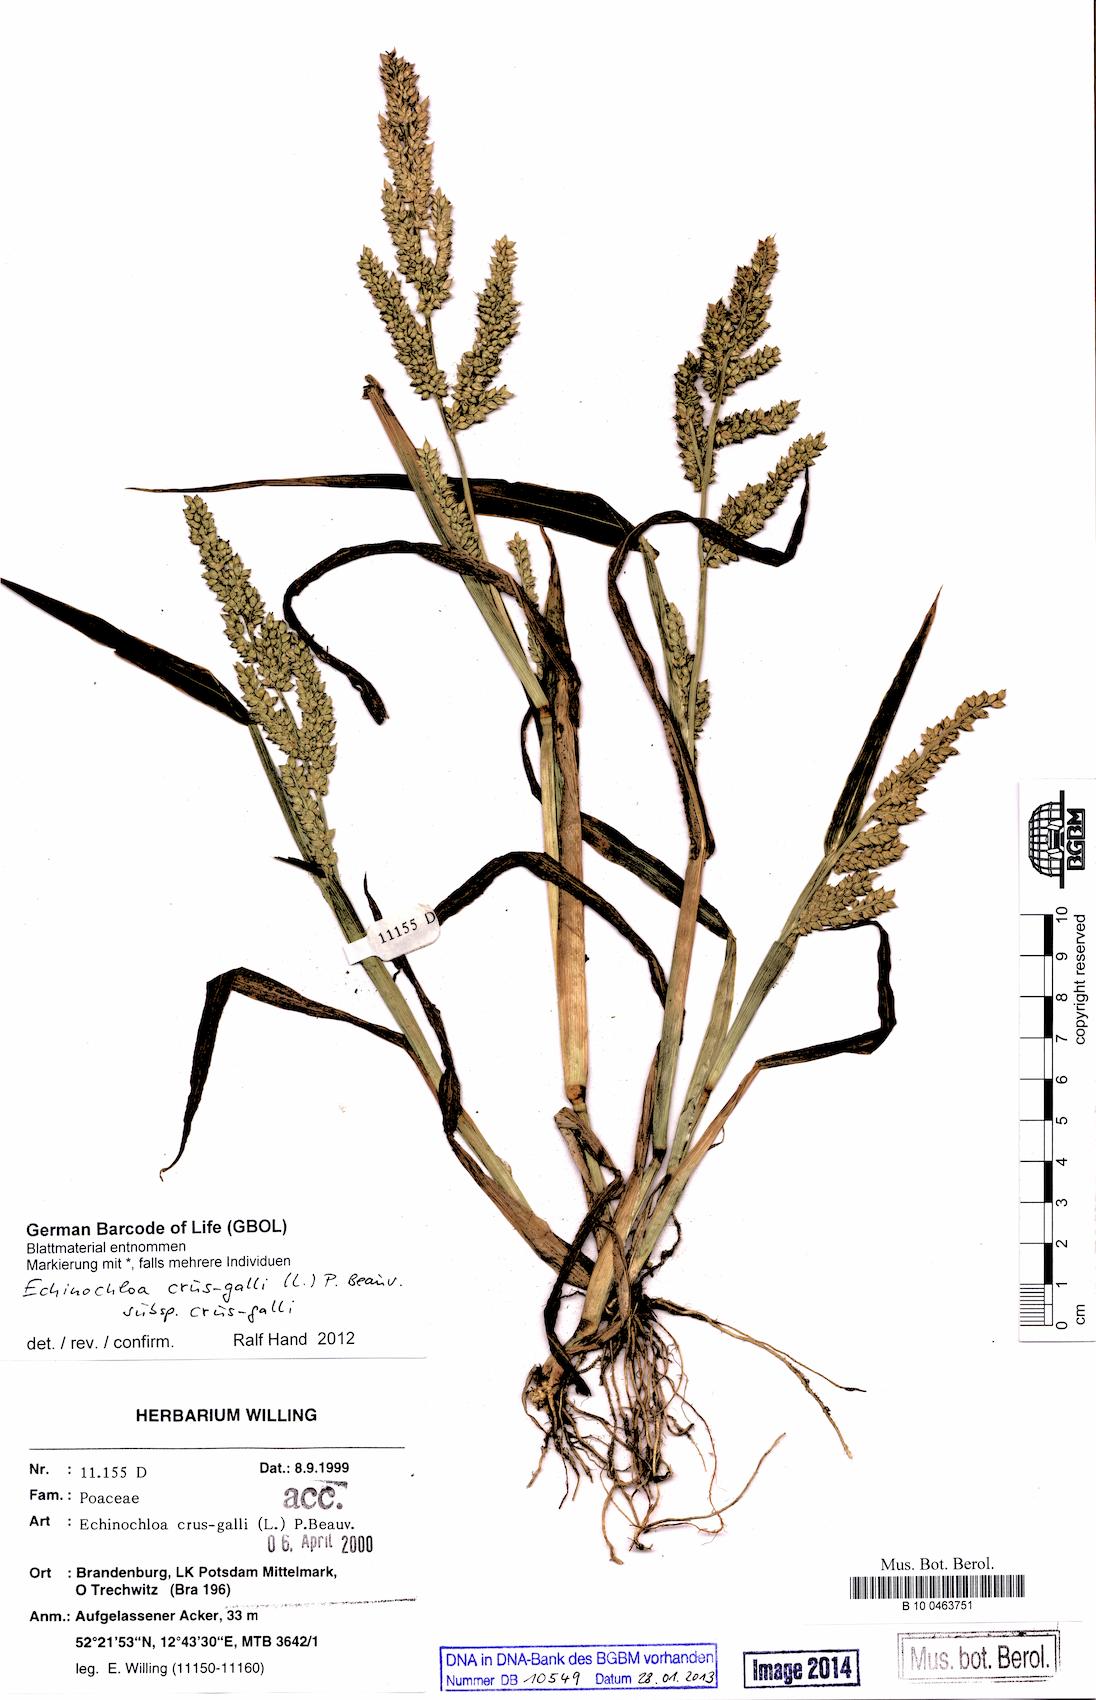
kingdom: Plantae
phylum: Tracheophyta
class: Liliopsida
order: Poales
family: Poaceae
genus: Echinochloa
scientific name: Echinochloa crus-galli
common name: Cockspur
